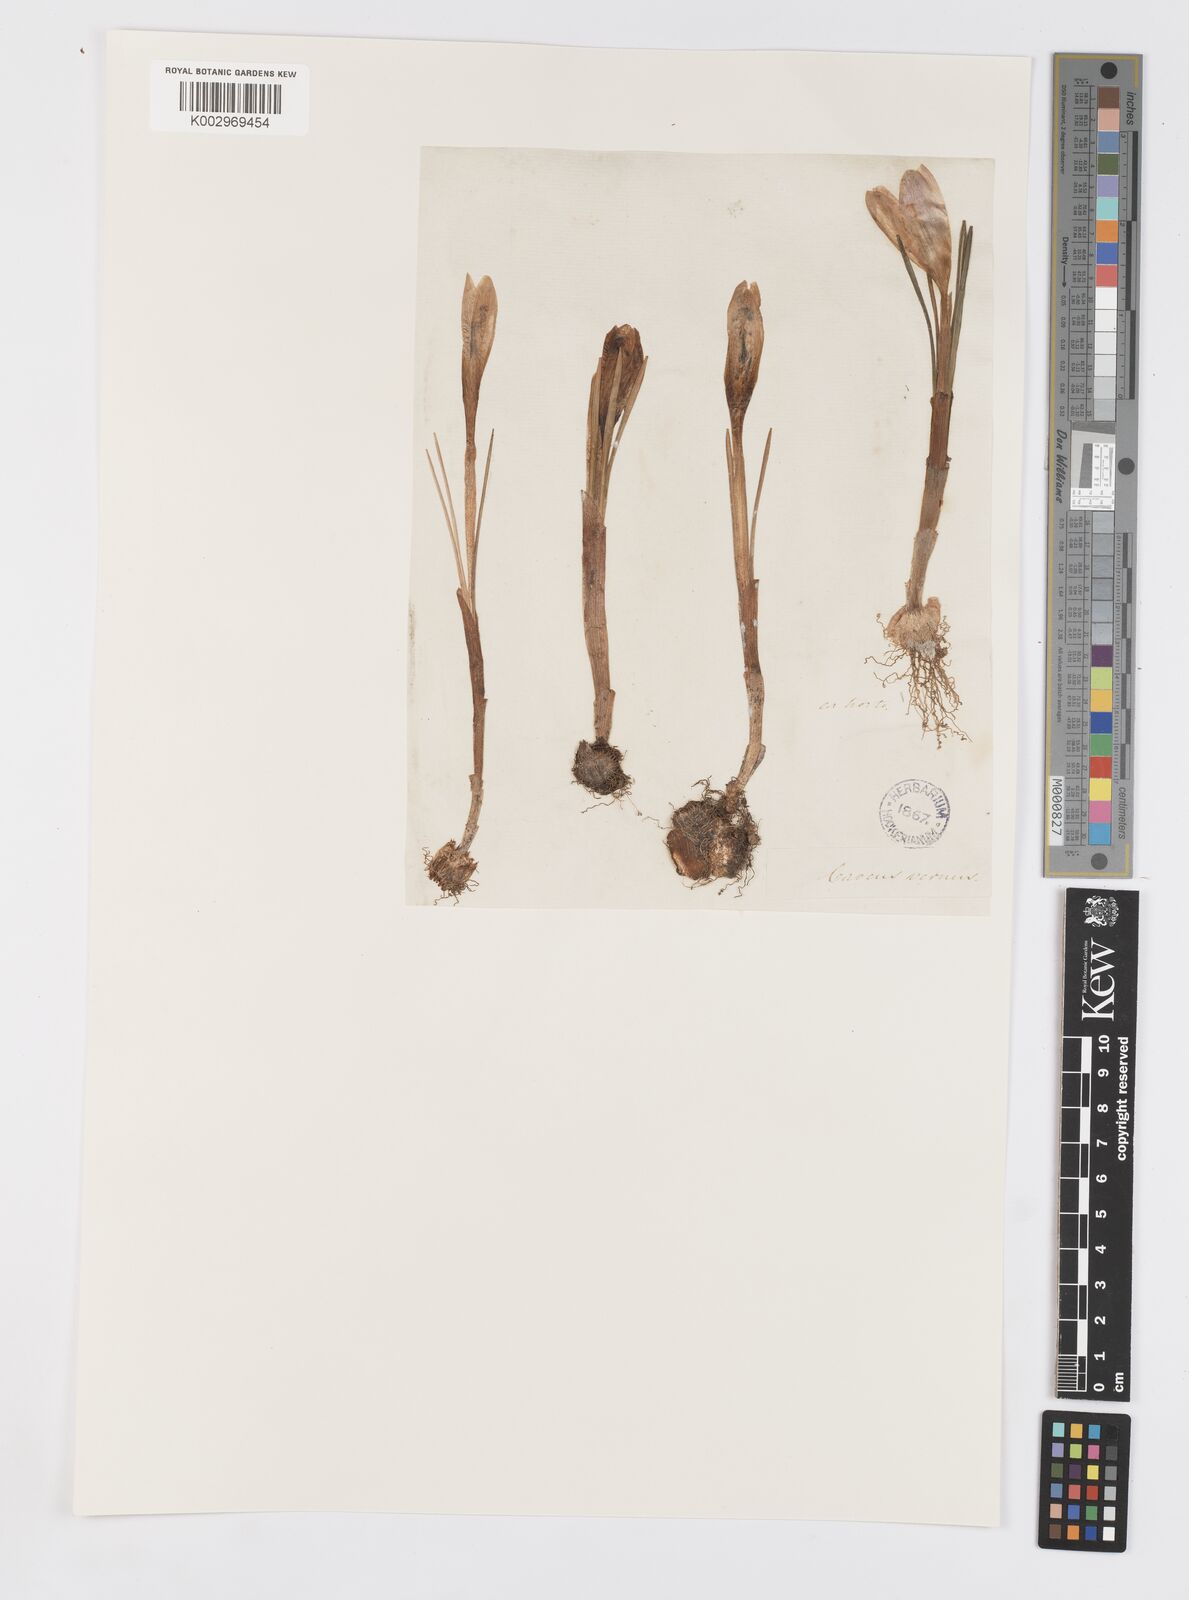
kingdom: Plantae
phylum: Tracheophyta
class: Liliopsida
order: Asparagales
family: Iridaceae
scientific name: Iridaceae
